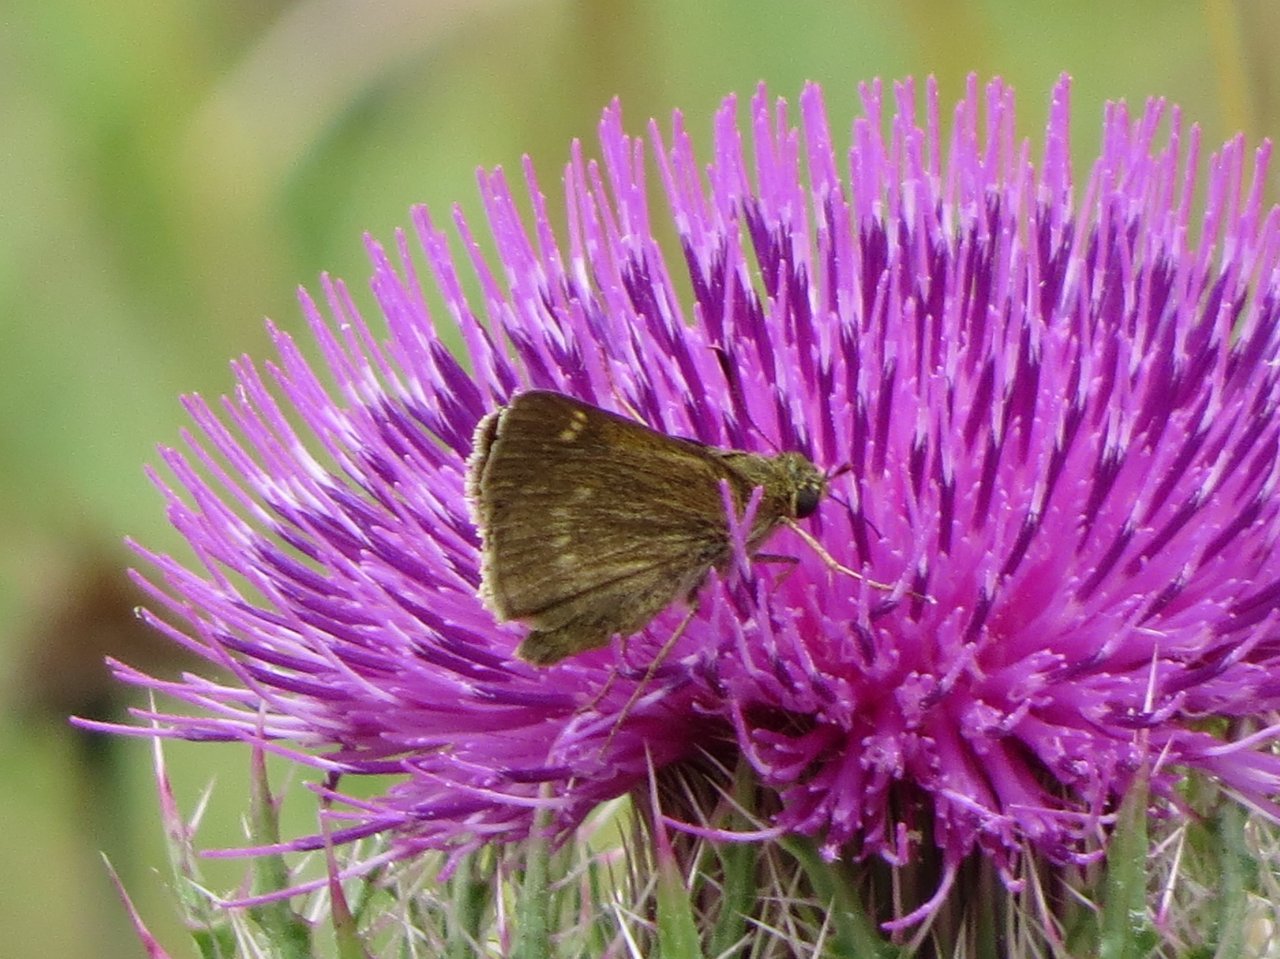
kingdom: Animalia
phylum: Arthropoda
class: Insecta
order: Lepidoptera
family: Hesperiidae
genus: Polites
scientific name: Polites
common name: Crossline Skipper
